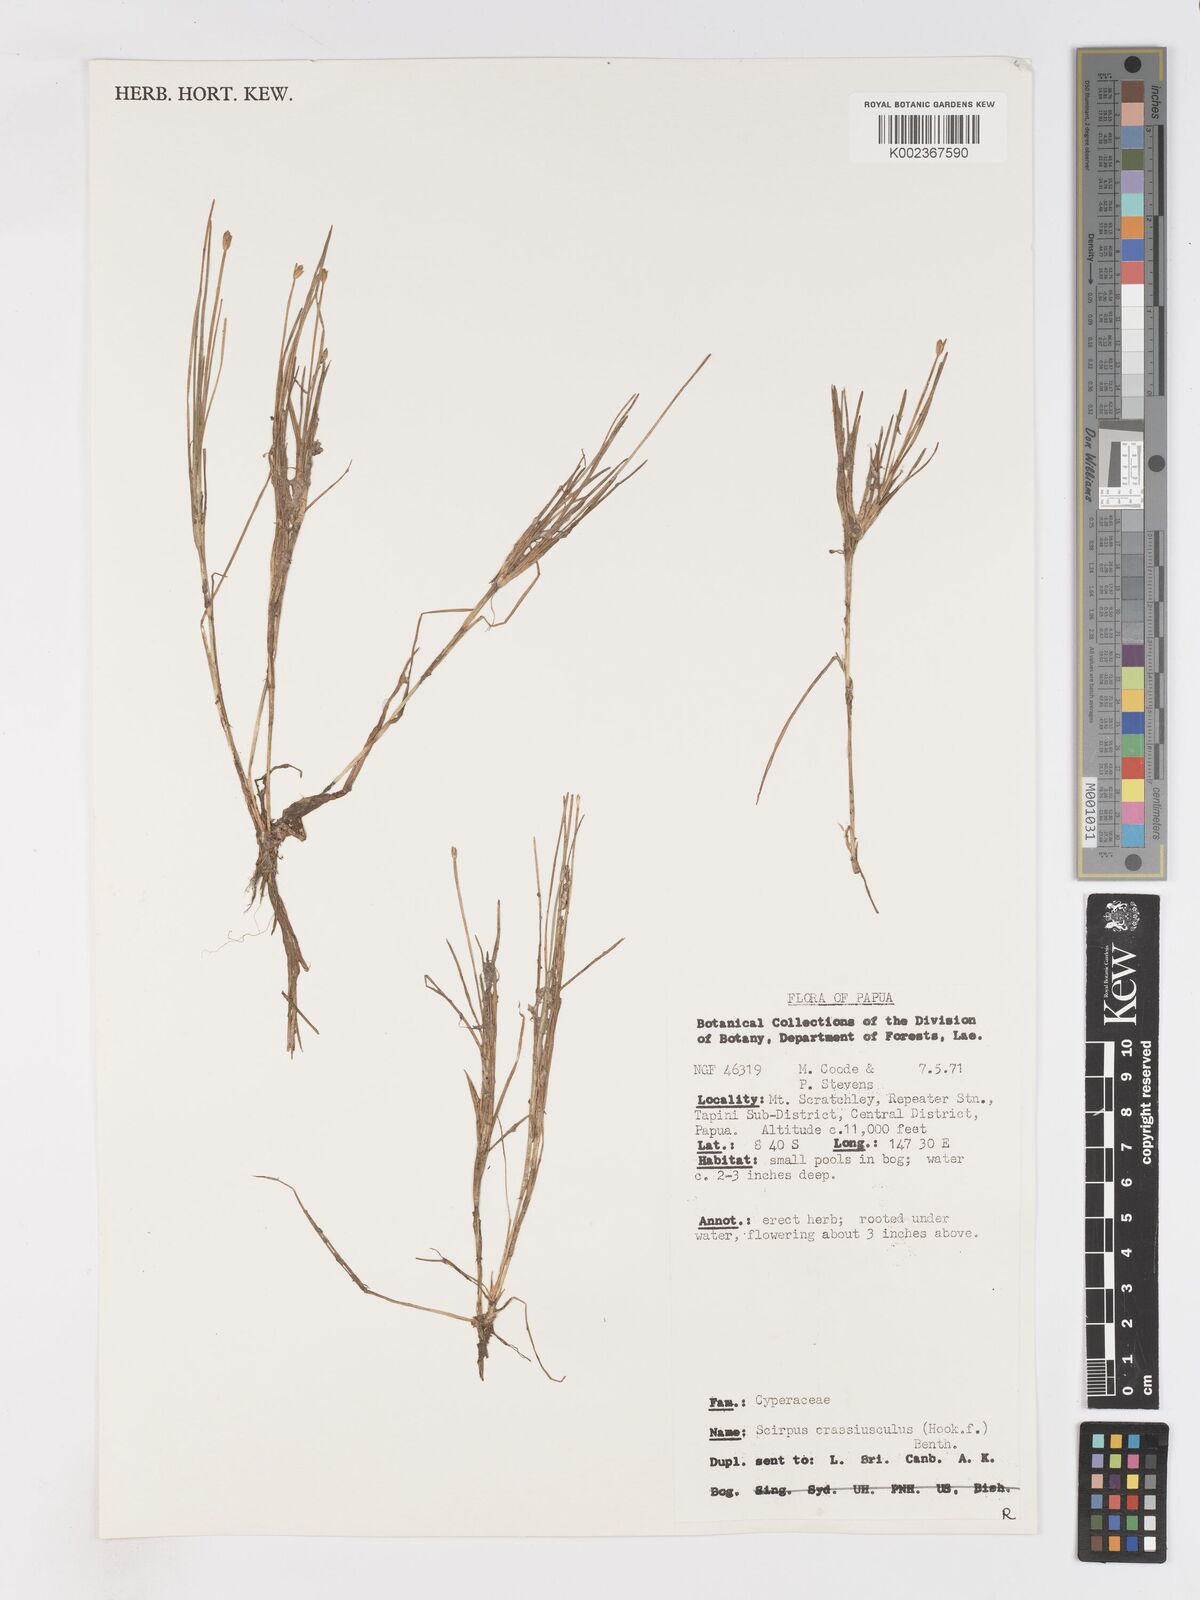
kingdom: Plantae
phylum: Tracheophyta
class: Liliopsida
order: Poales
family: Cyperaceae
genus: Isolepis
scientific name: Isolepis crassiuscula
